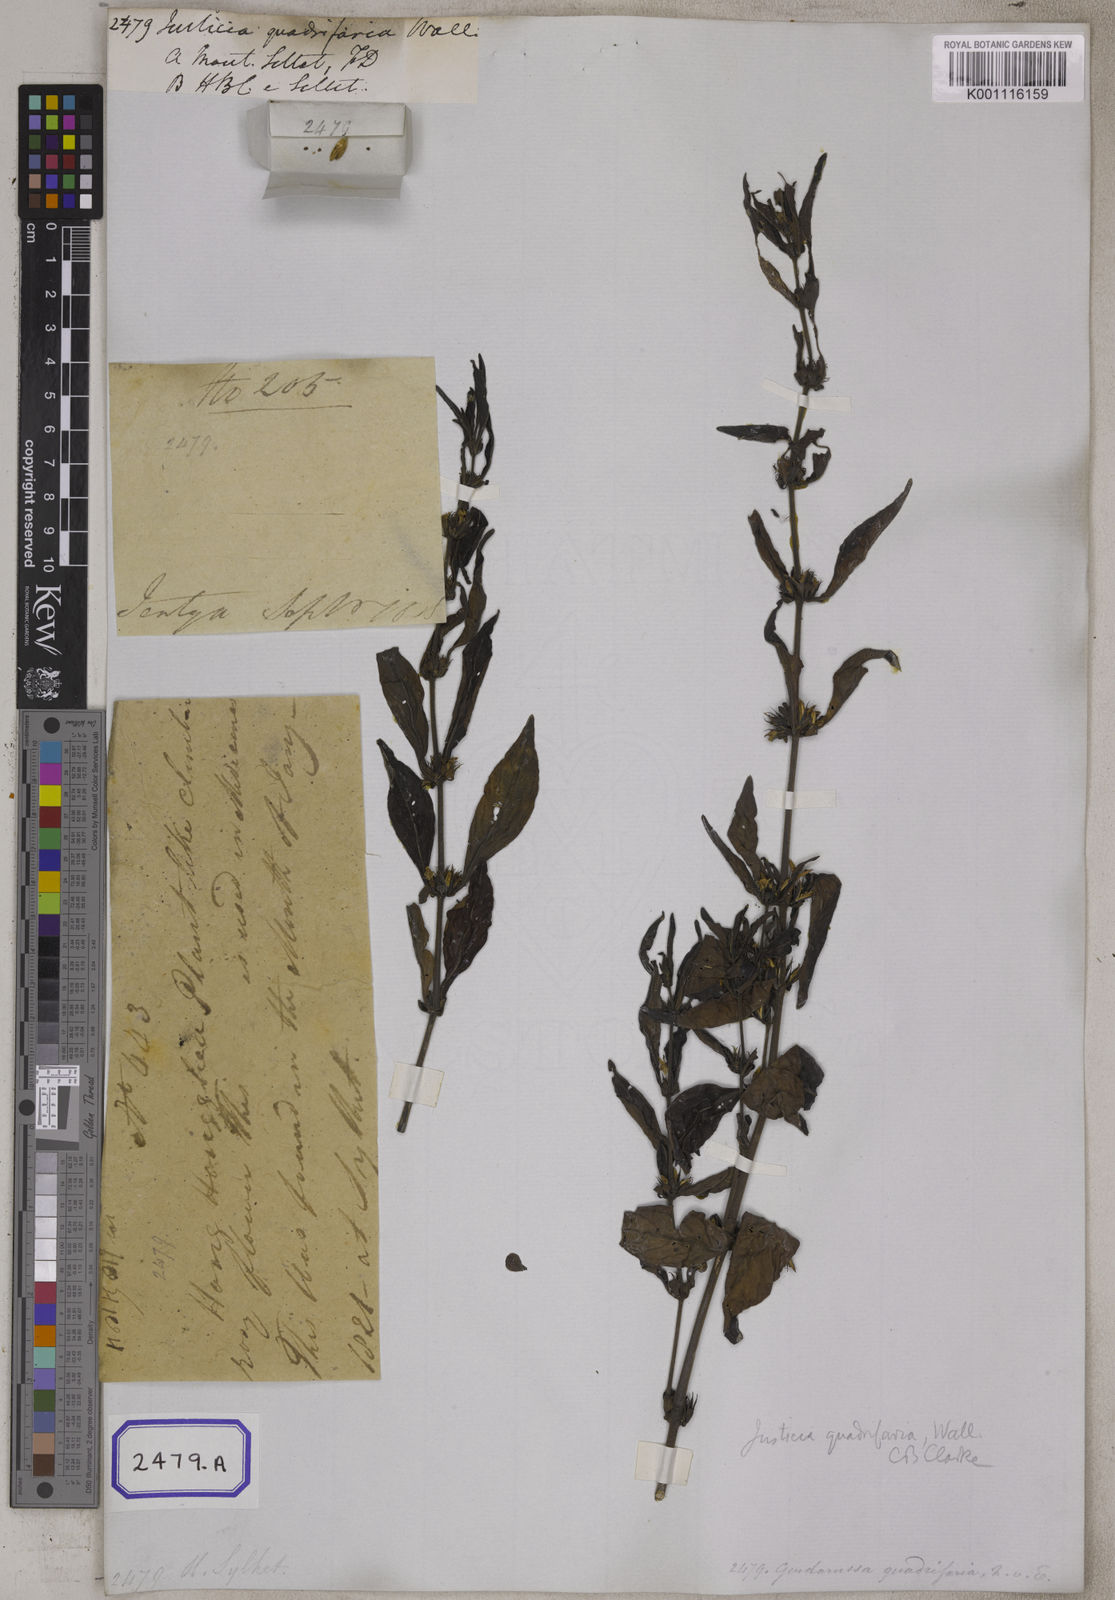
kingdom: Plantae
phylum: Tracheophyta
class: Magnoliopsida
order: Lamiales
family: Acanthaceae
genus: Justicia
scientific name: Justicia
